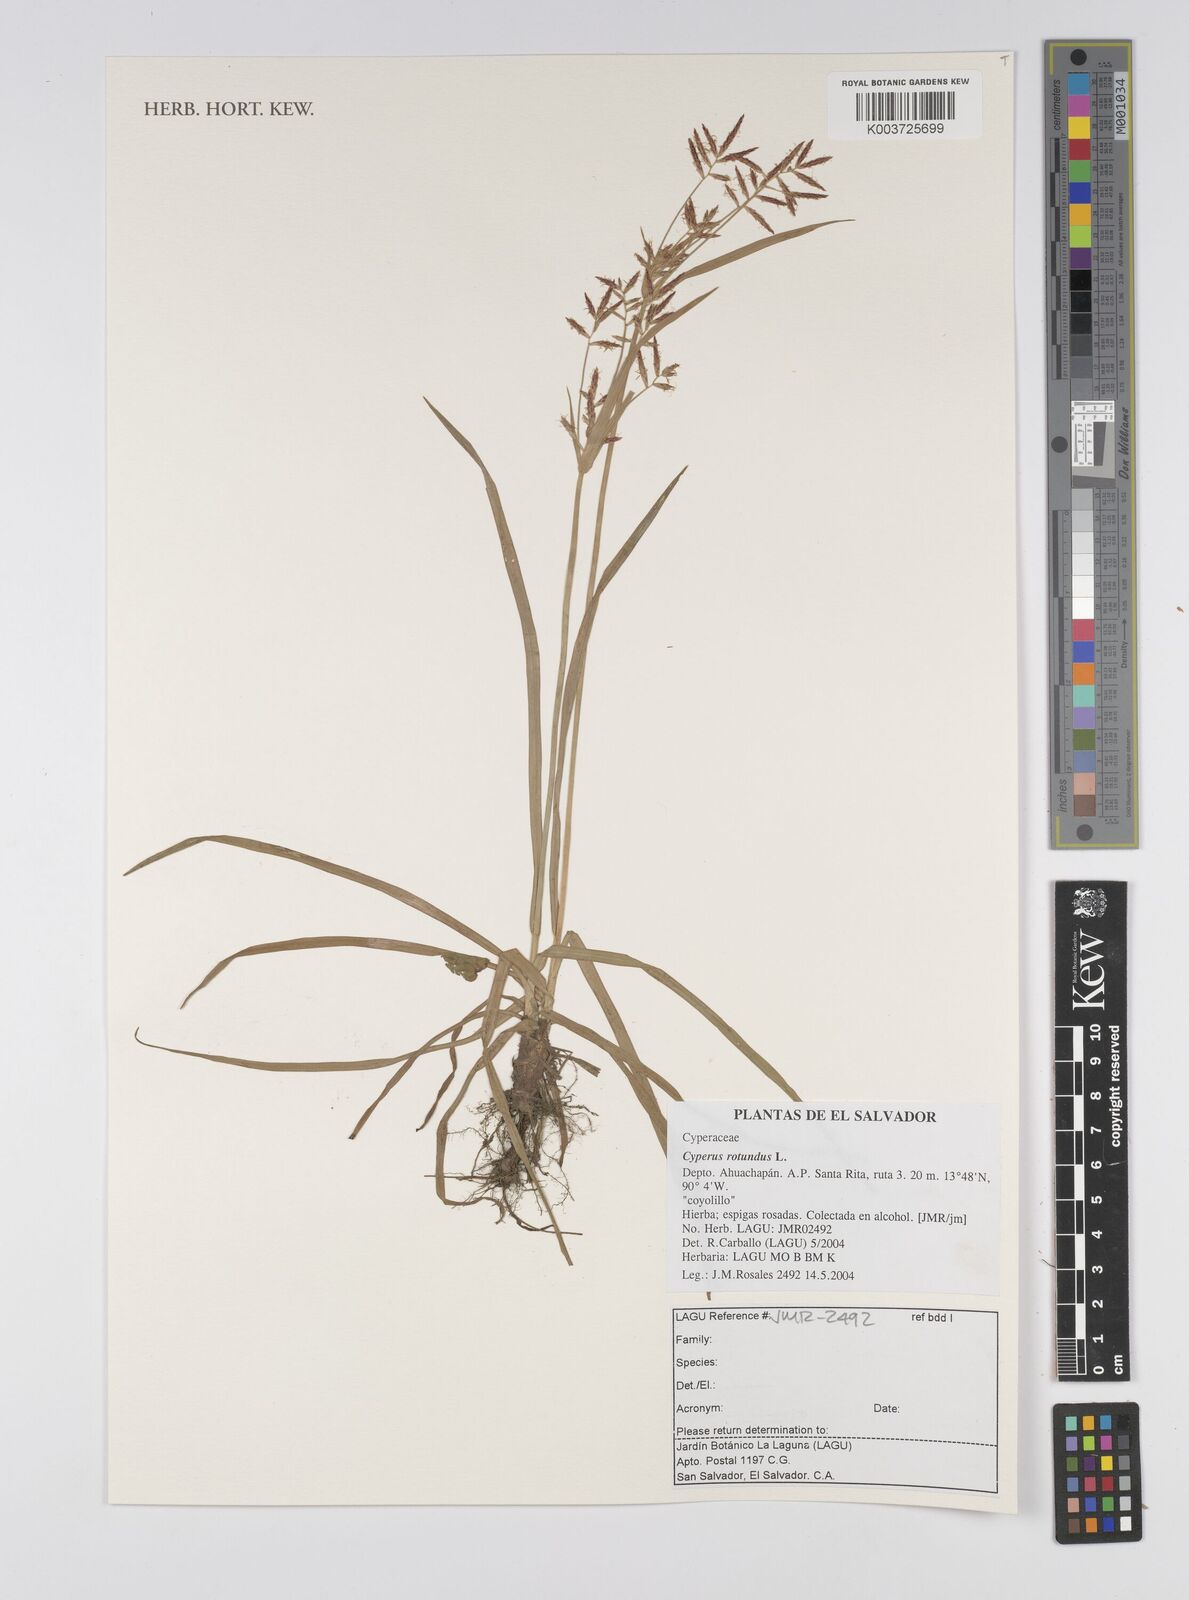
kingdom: Plantae
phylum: Tracheophyta
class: Liliopsida
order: Poales
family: Cyperaceae
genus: Cyperus
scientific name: Cyperus rotundus
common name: Nutgrass
